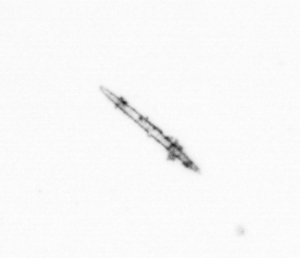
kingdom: Chromista
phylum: Ochrophyta
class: Bacillariophyceae
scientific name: Bacillariophyceae
